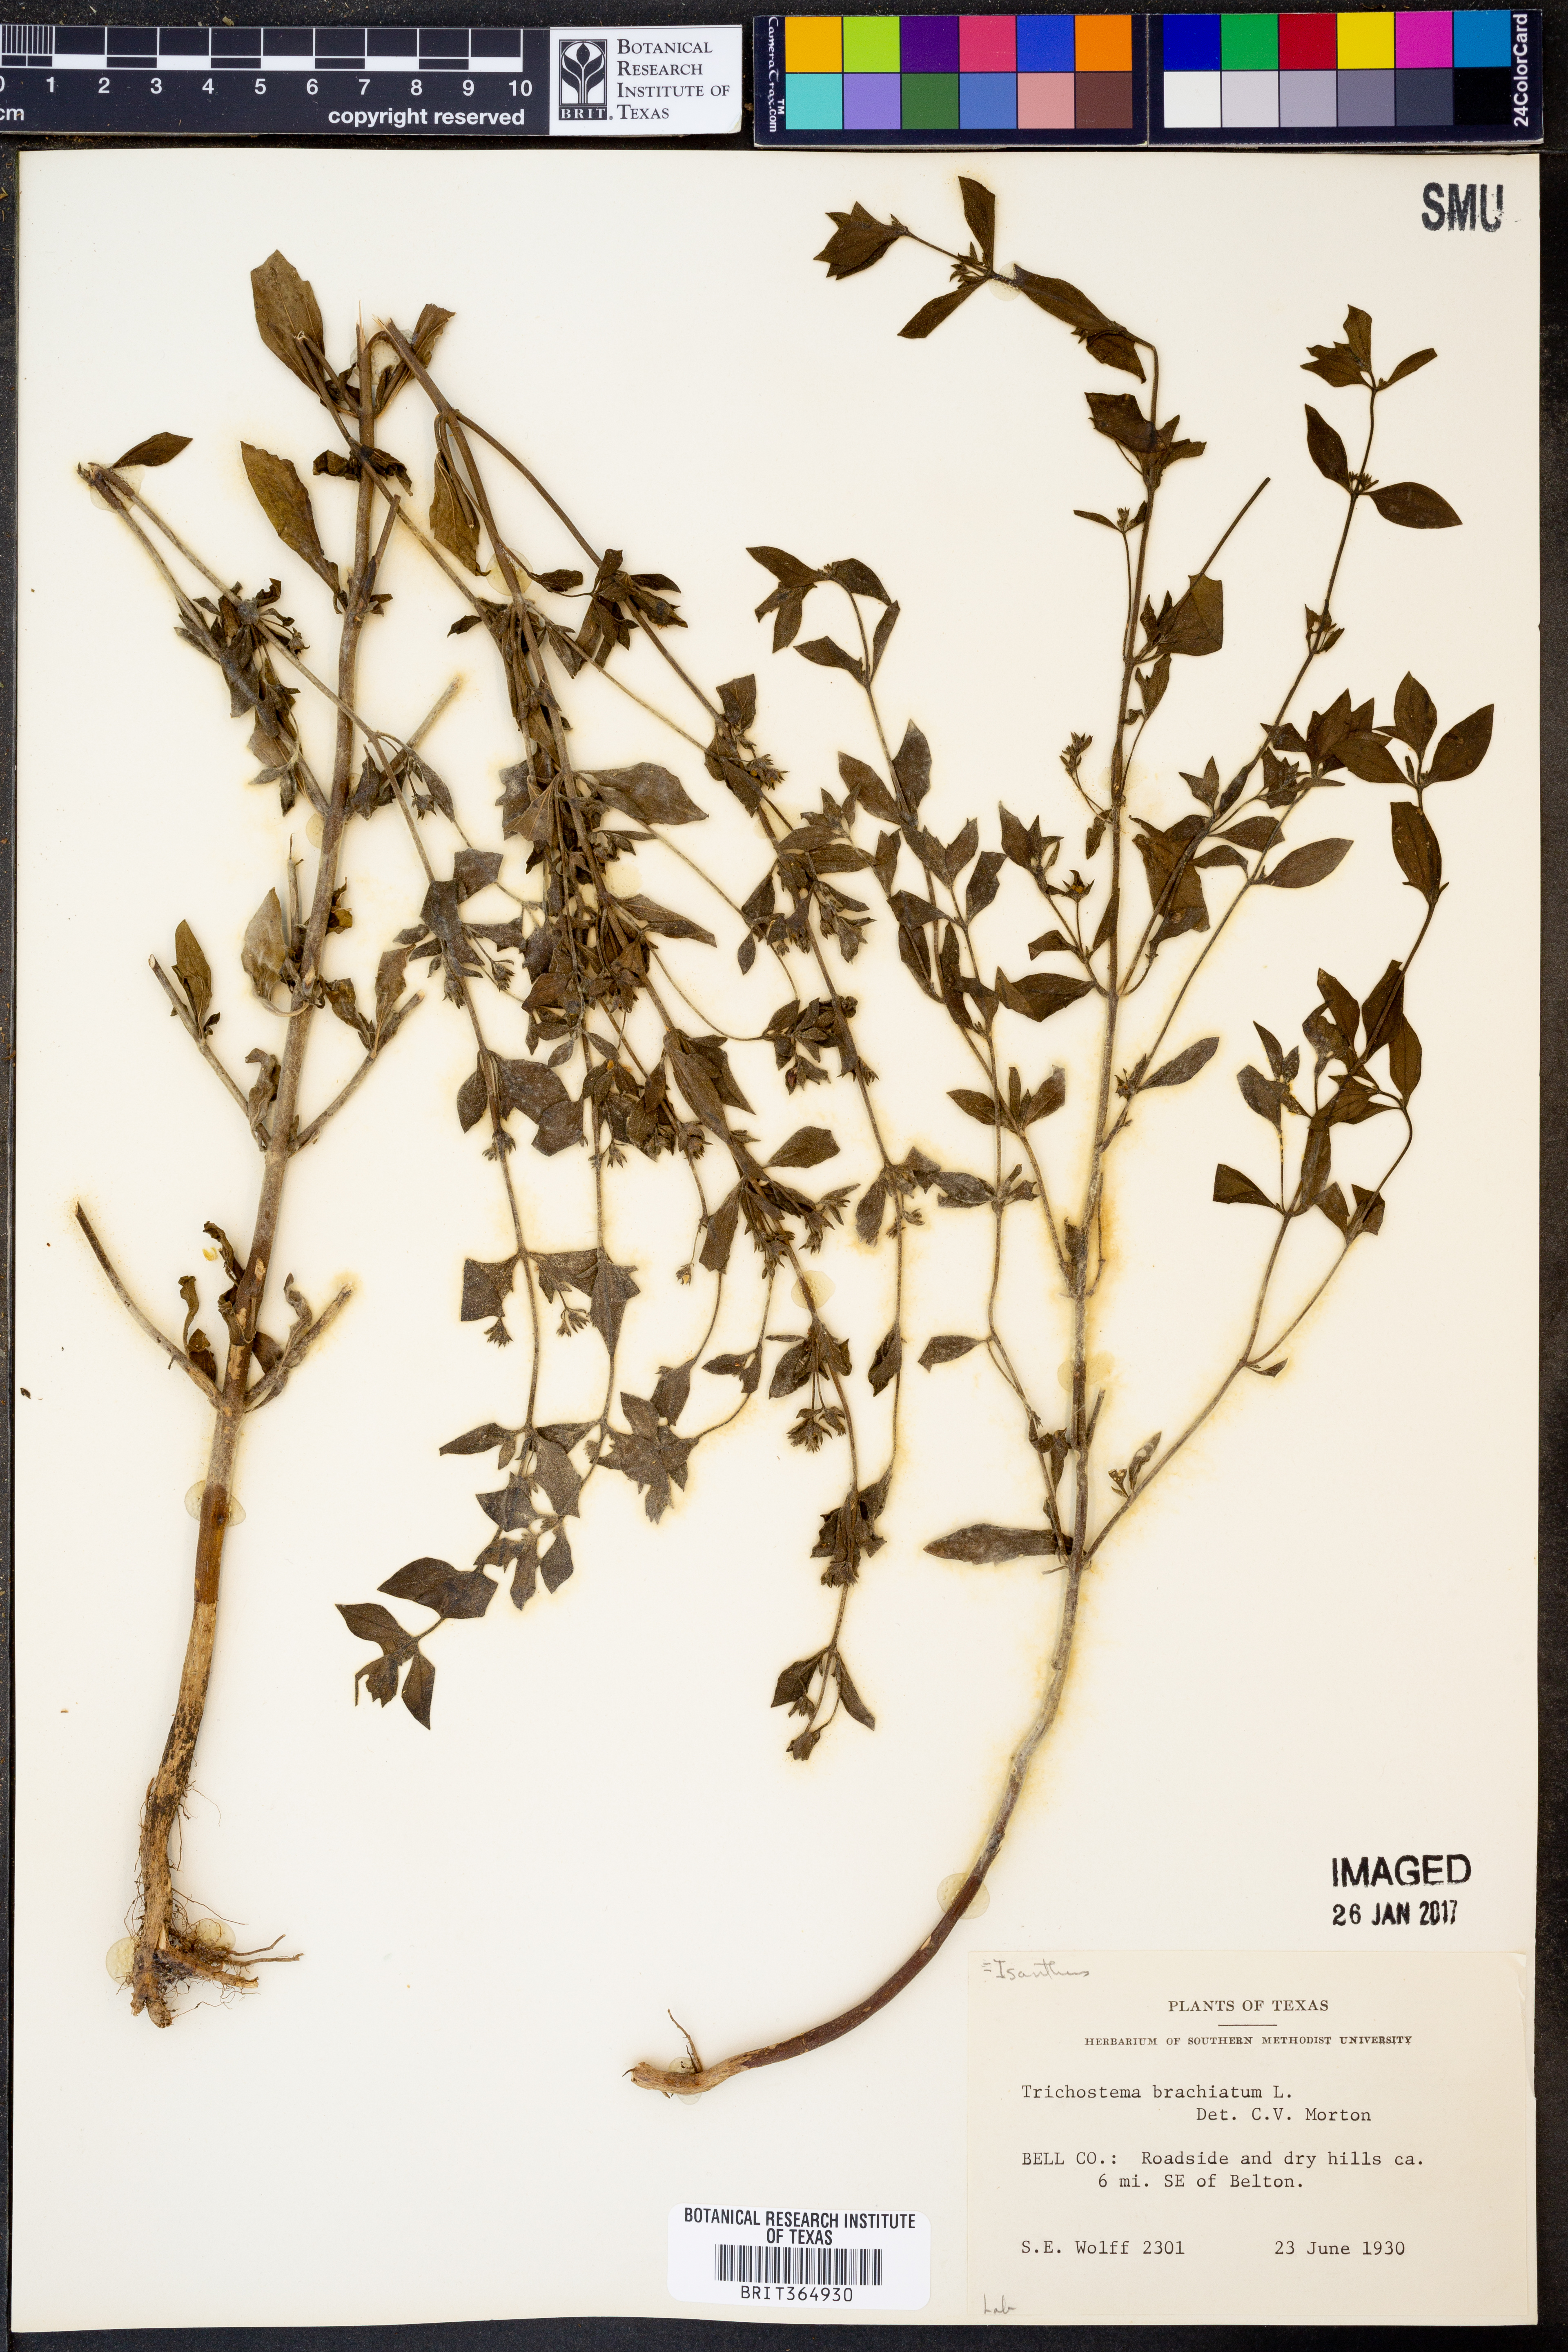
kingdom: Plantae
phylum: Tracheophyta
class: Magnoliopsida
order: Lamiales
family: Lamiaceae
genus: Trichostema
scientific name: Trichostema brachiatum
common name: False pennyroyal
